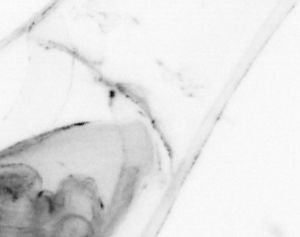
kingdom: Animalia
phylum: Chaetognatha
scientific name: Chaetognatha
